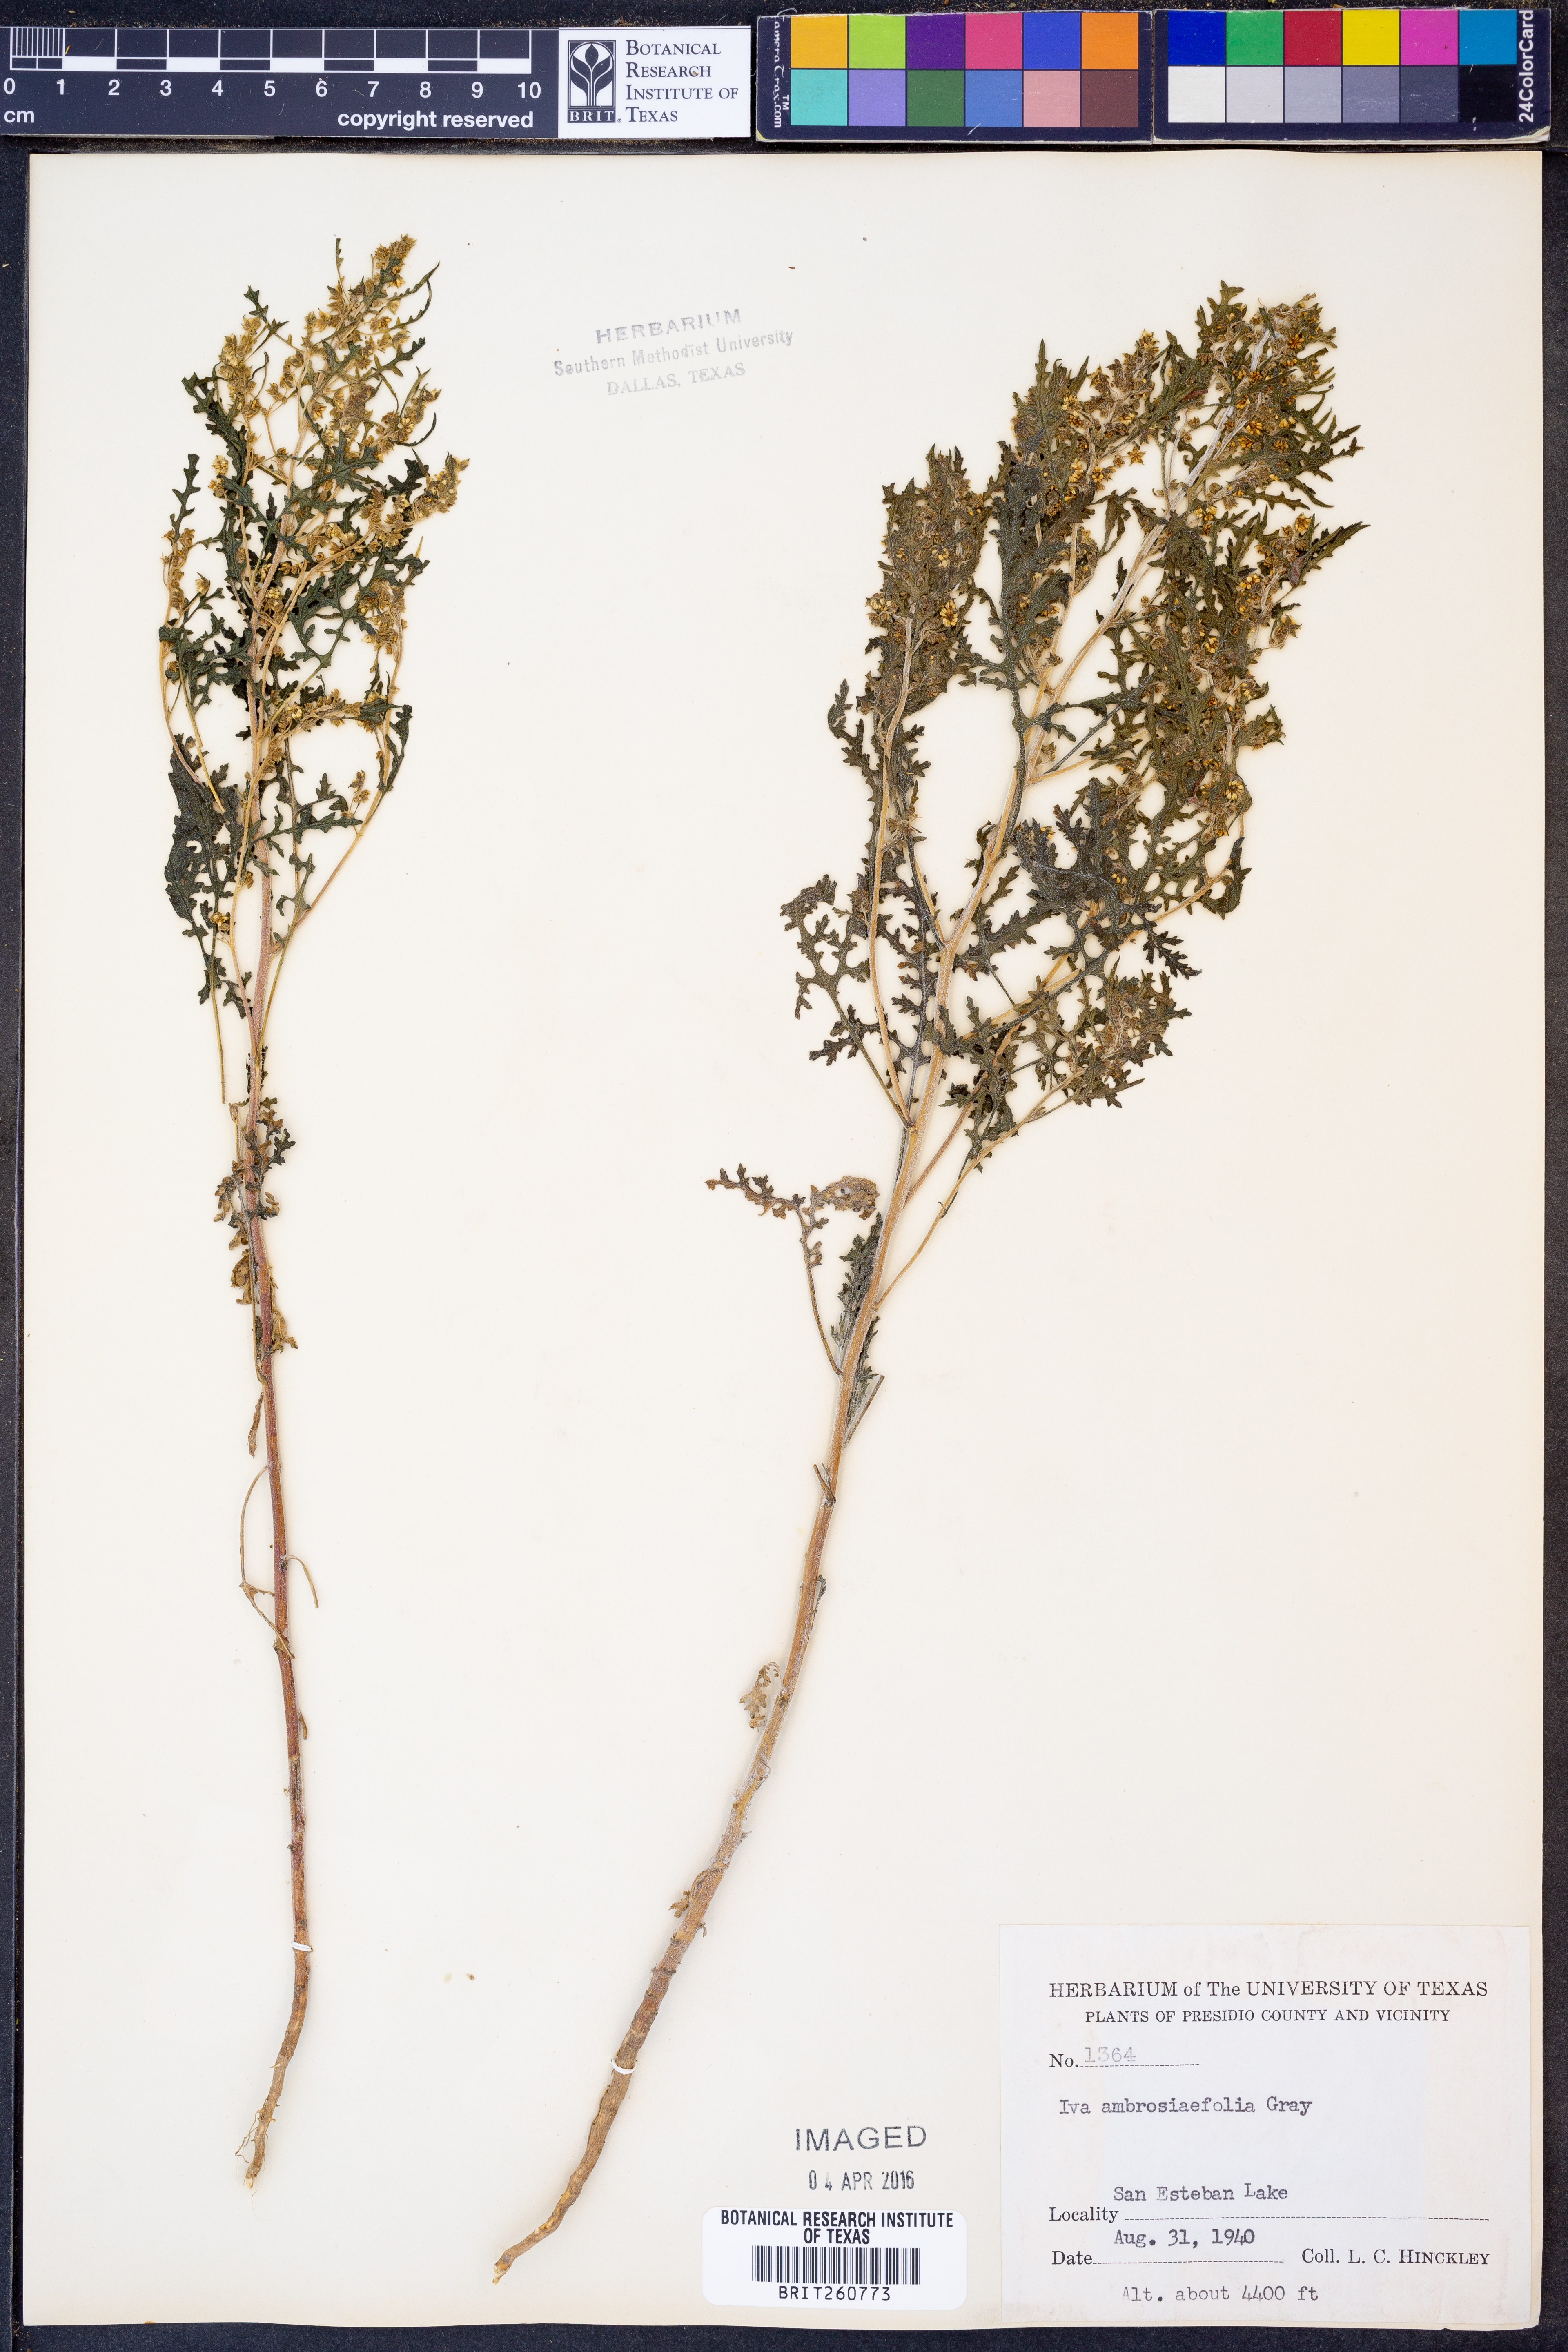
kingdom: Plantae
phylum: Tracheophyta
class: Magnoliopsida
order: Asterales
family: Asteraceae
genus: Hedosyne
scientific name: Hedosyne ambrosiifolia
